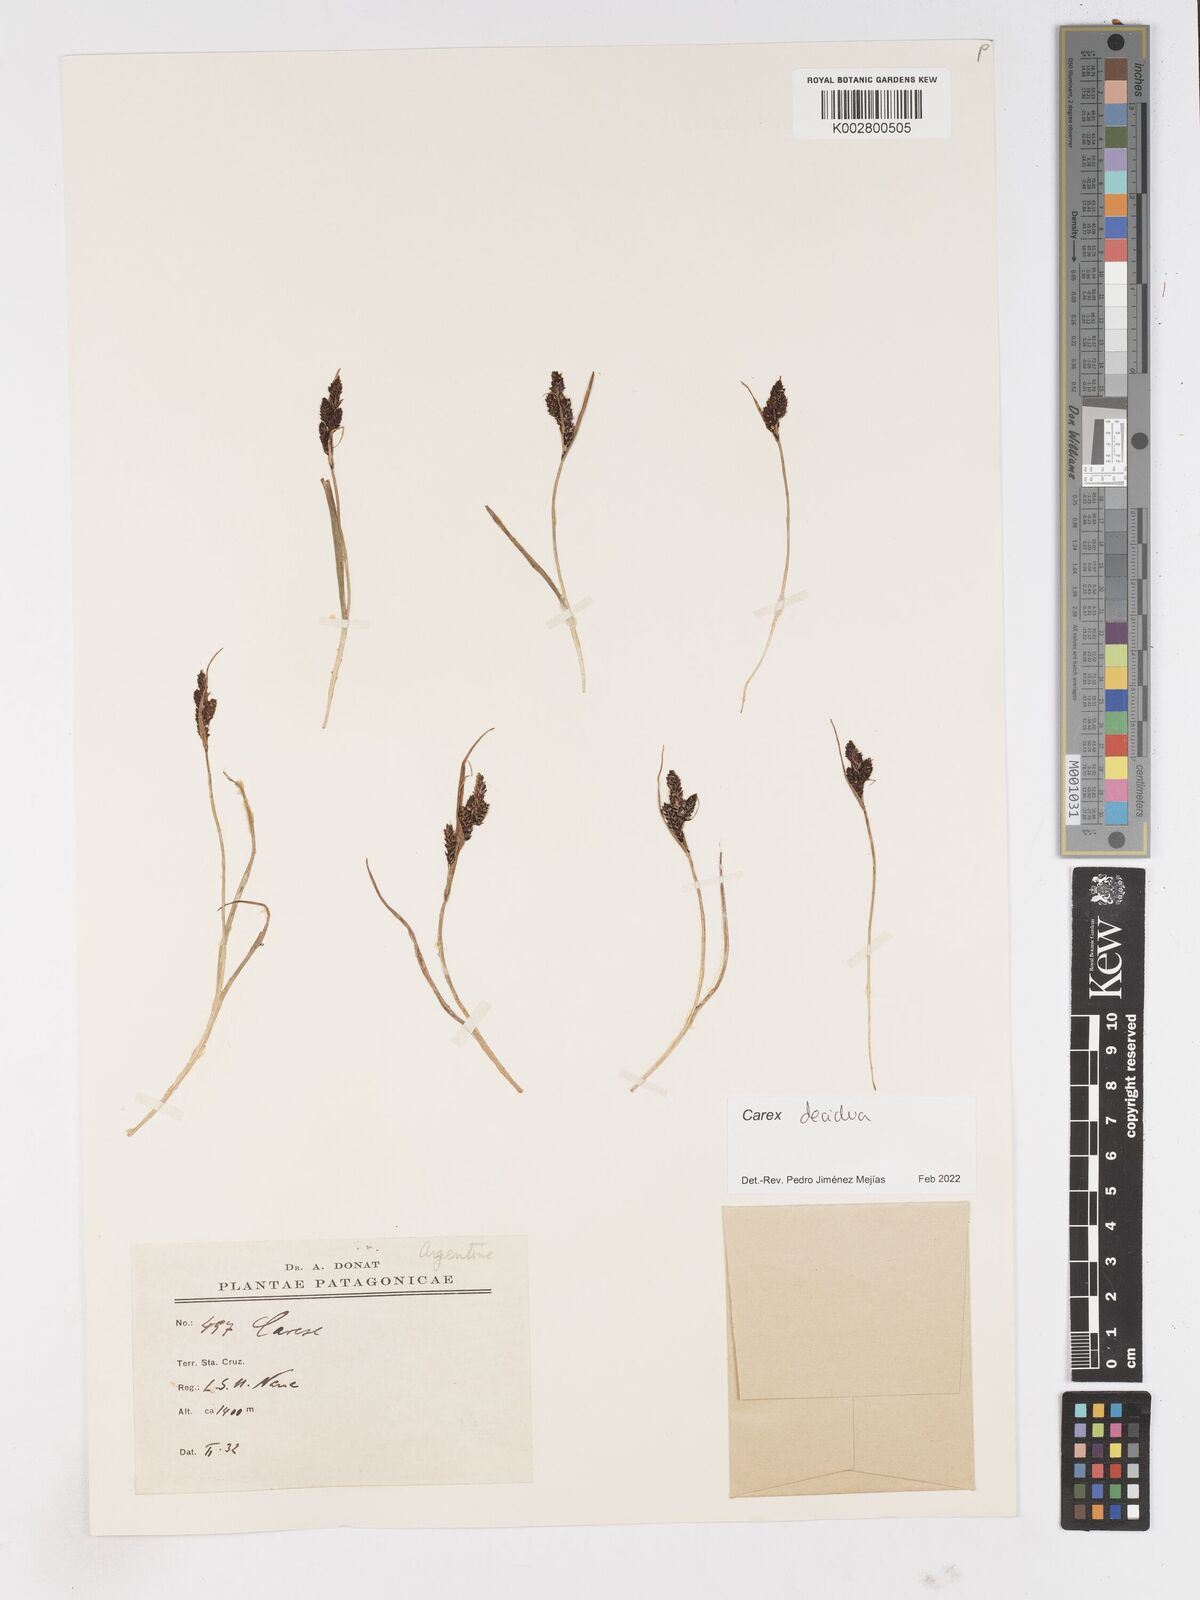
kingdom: Plantae
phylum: Tracheophyta
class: Liliopsida
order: Poales
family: Cyperaceae
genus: Carex
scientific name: Carex decidua
